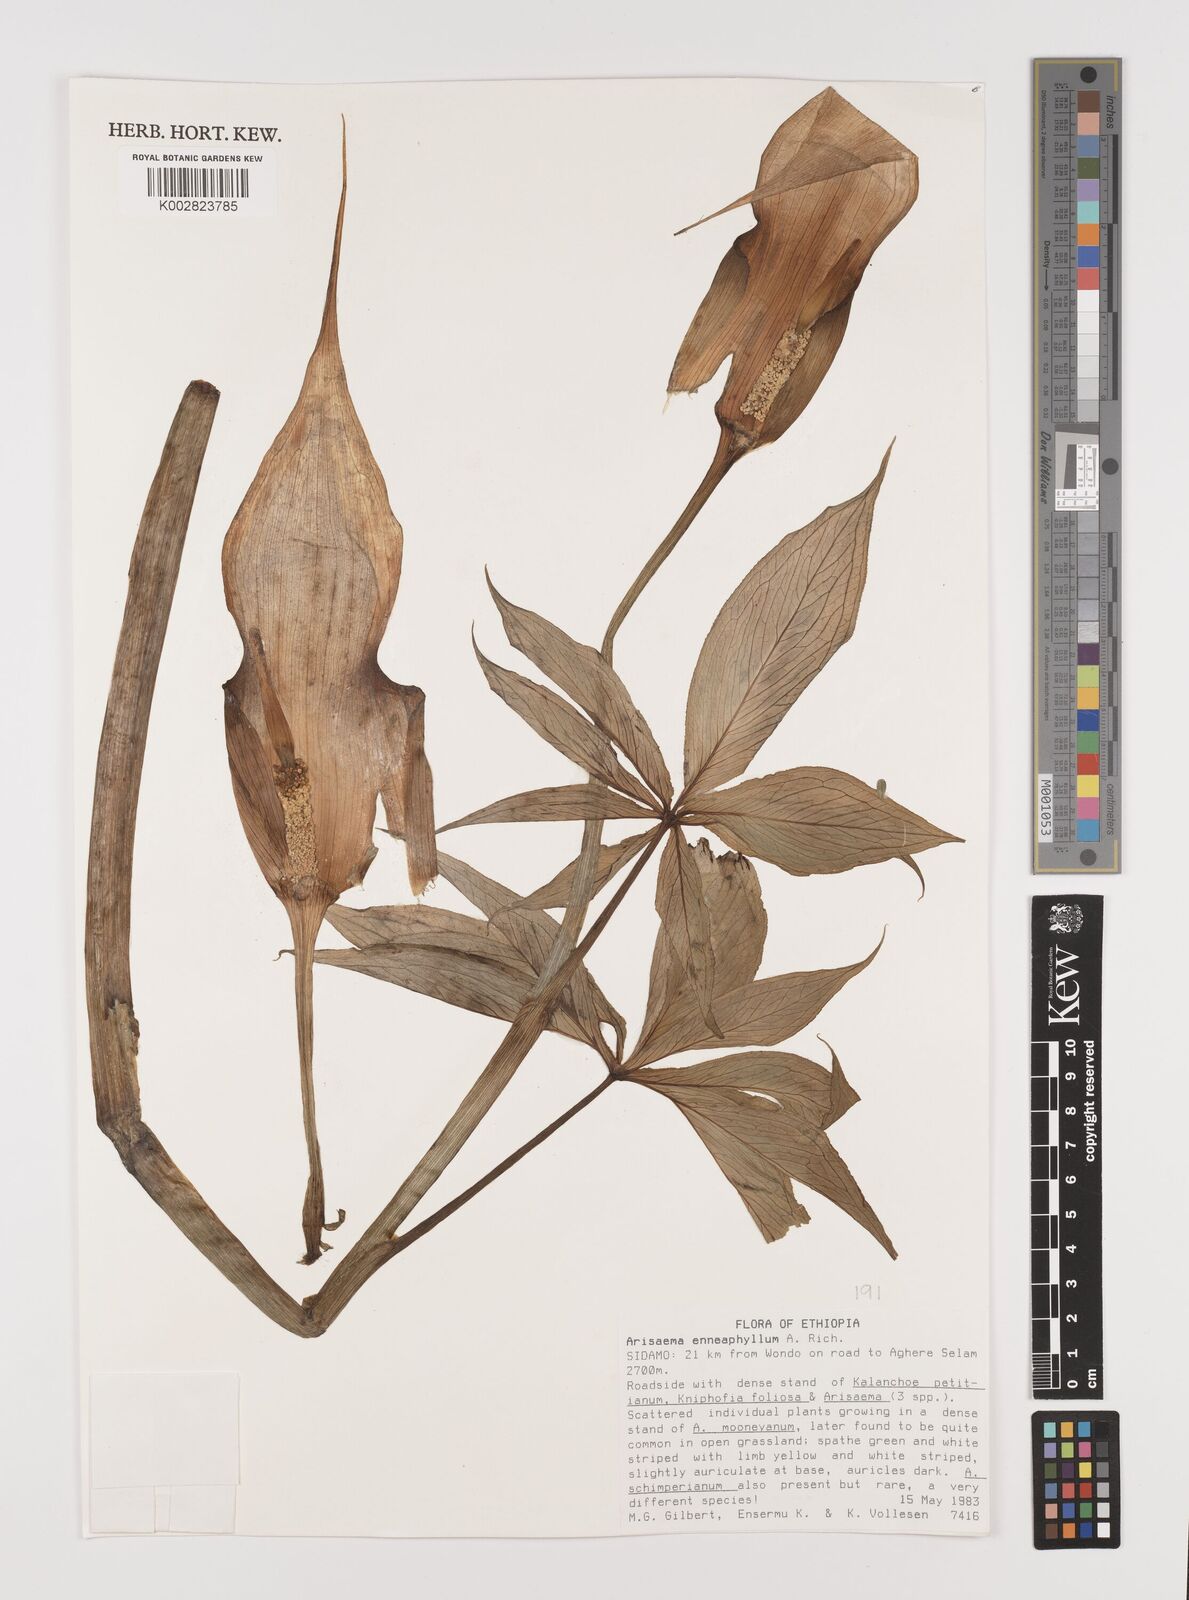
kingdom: Plantae
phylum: Tracheophyta
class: Liliopsida
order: Alismatales
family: Araceae
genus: Arisaema
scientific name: Arisaema enneaphyllum
